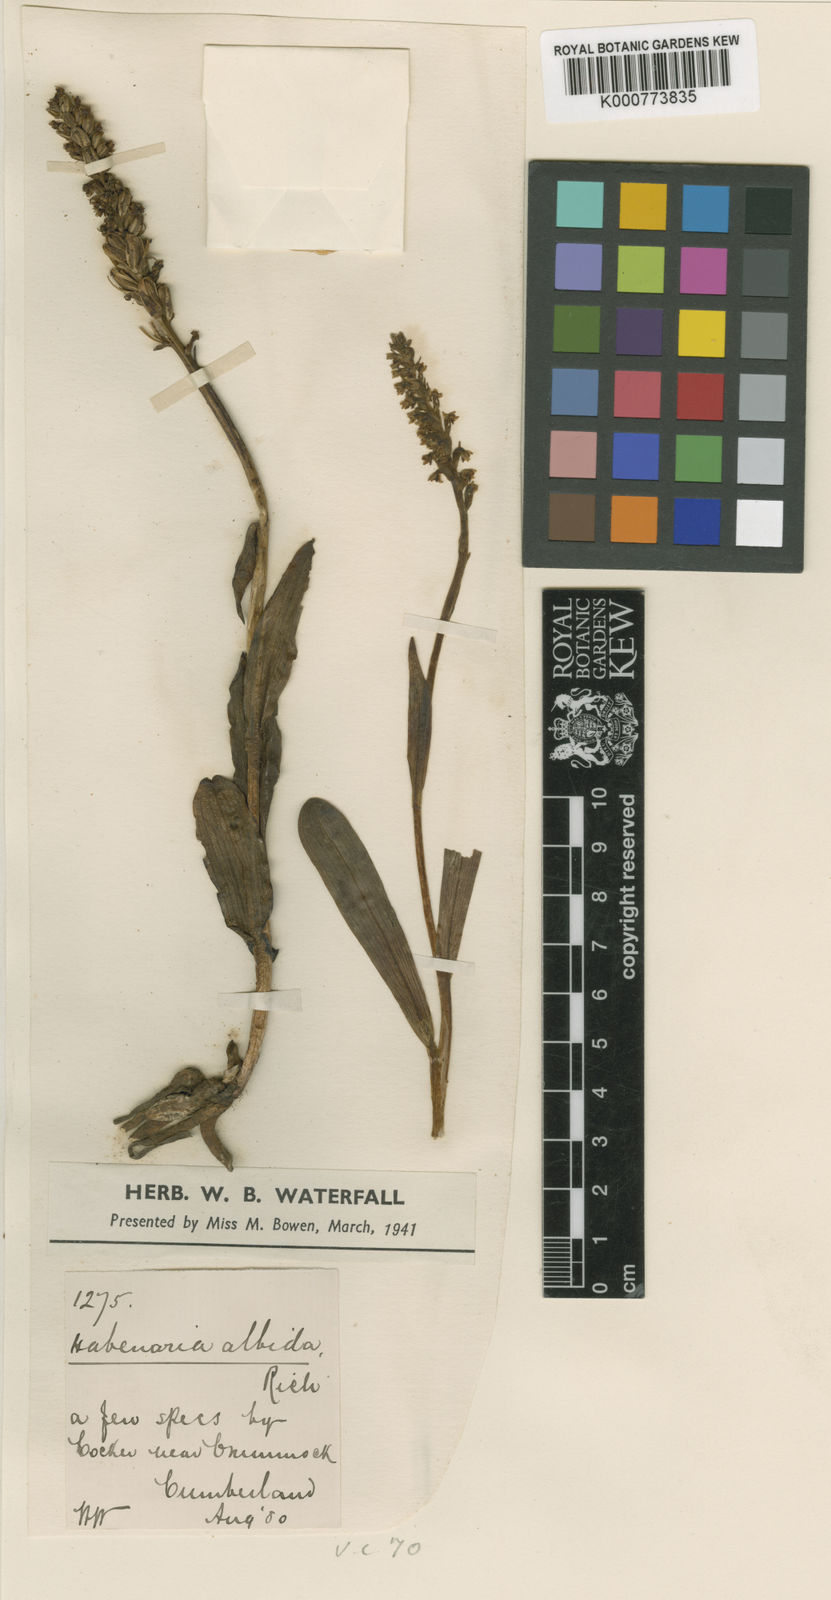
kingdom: Plantae
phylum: Tracheophyta
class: Liliopsida
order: Asparagales
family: Orchidaceae
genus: Pseudorchis
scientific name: Pseudorchis
